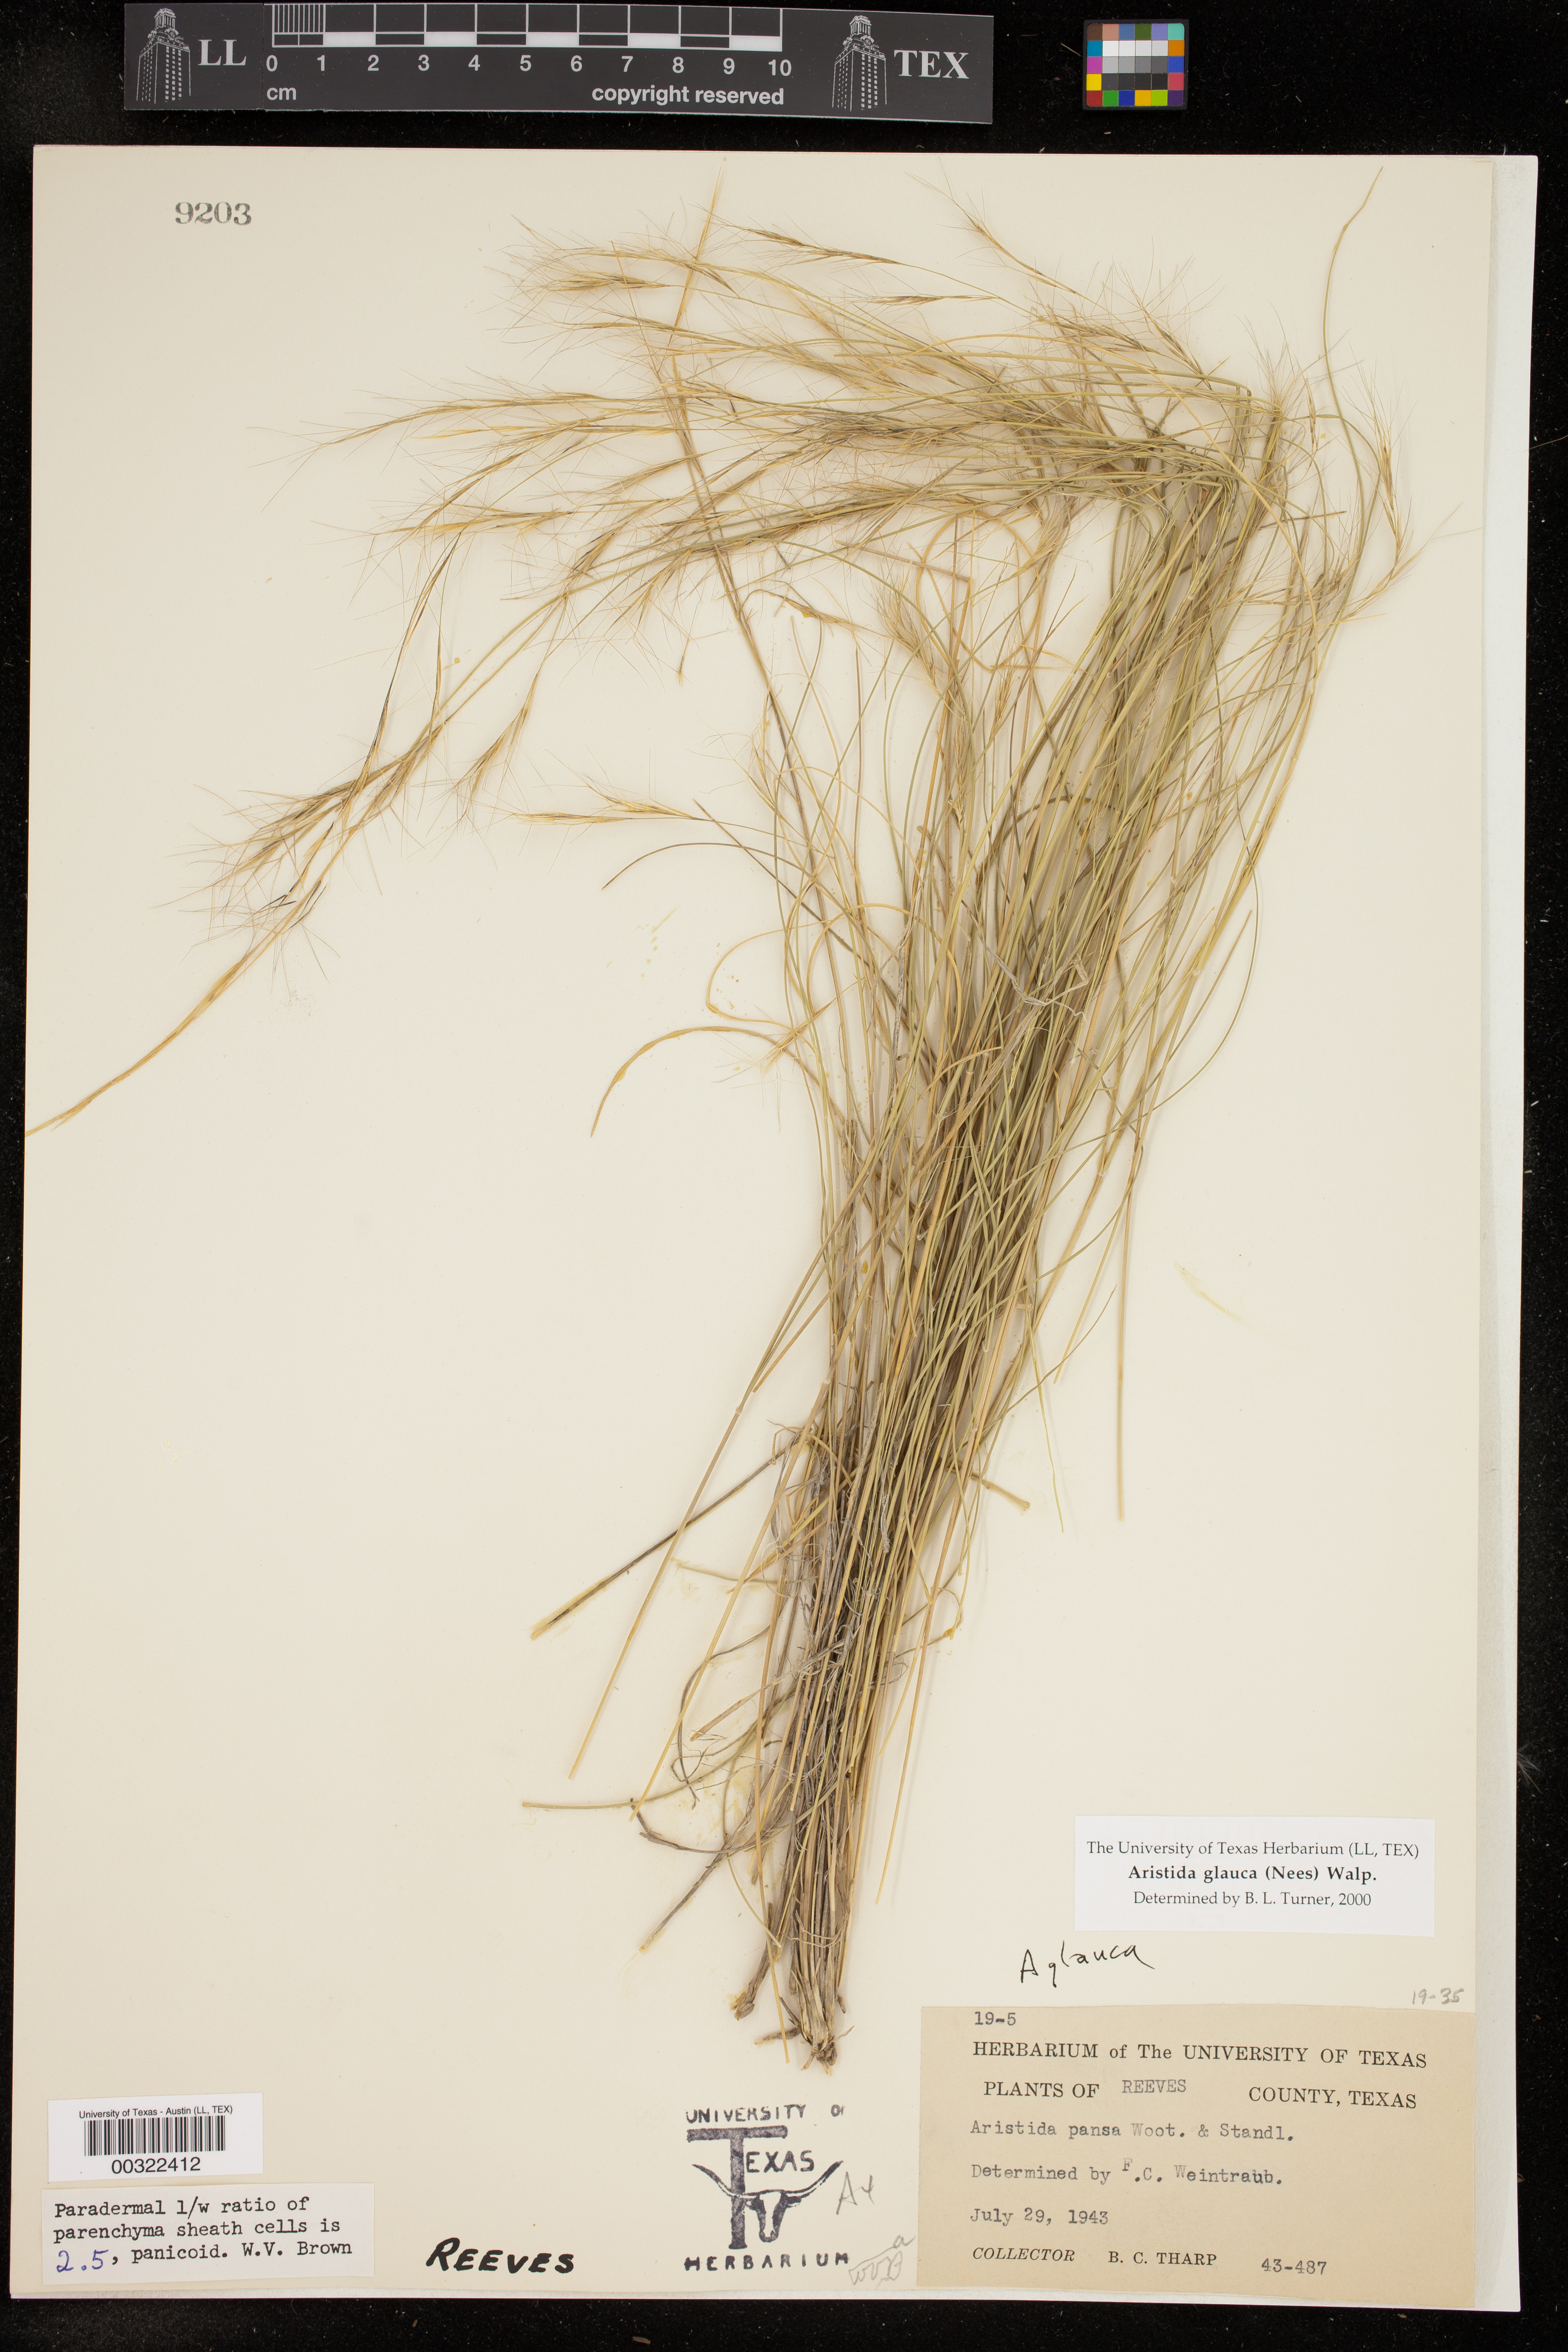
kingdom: Plantae
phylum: Tracheophyta
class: Liliopsida
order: Poales
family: Poaceae
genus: Aristida
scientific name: Aristida glauca
